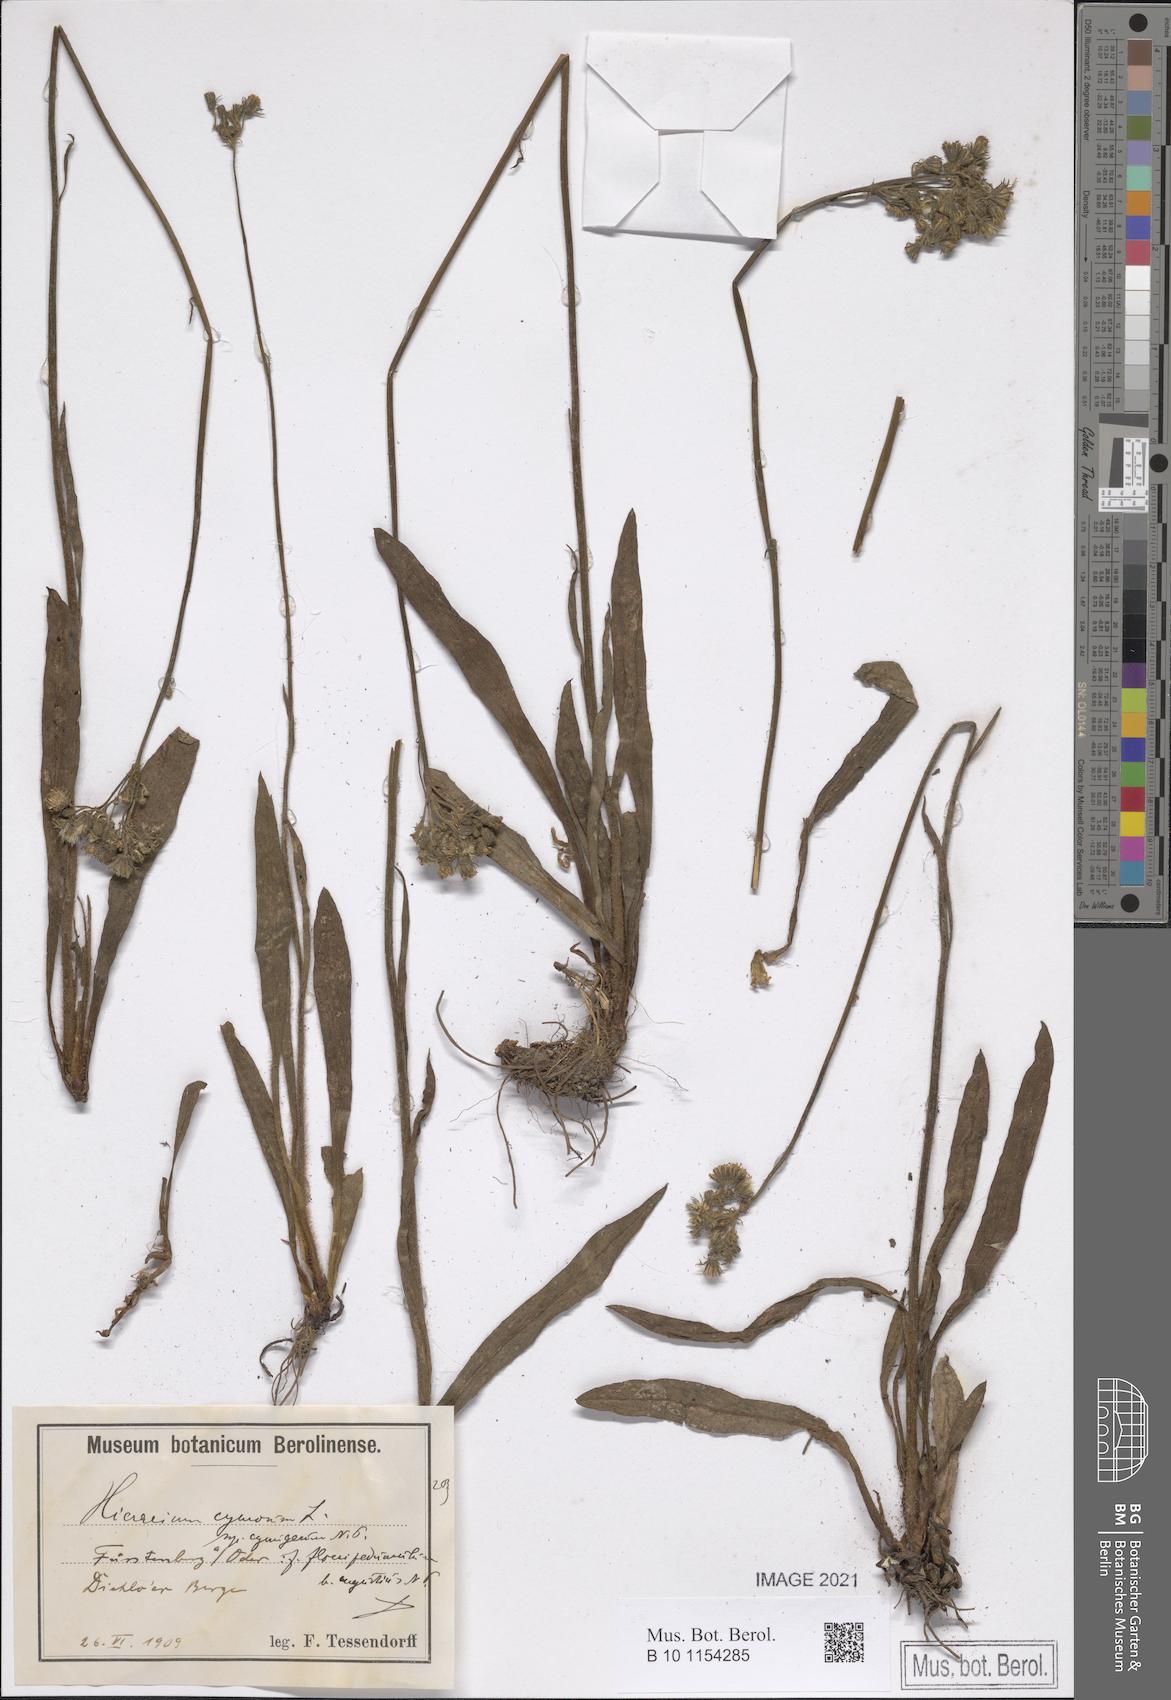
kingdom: Plantae
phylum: Tracheophyta
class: Magnoliopsida
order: Asterales
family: Asteraceae
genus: Pilosella
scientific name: Pilosella cymosa
